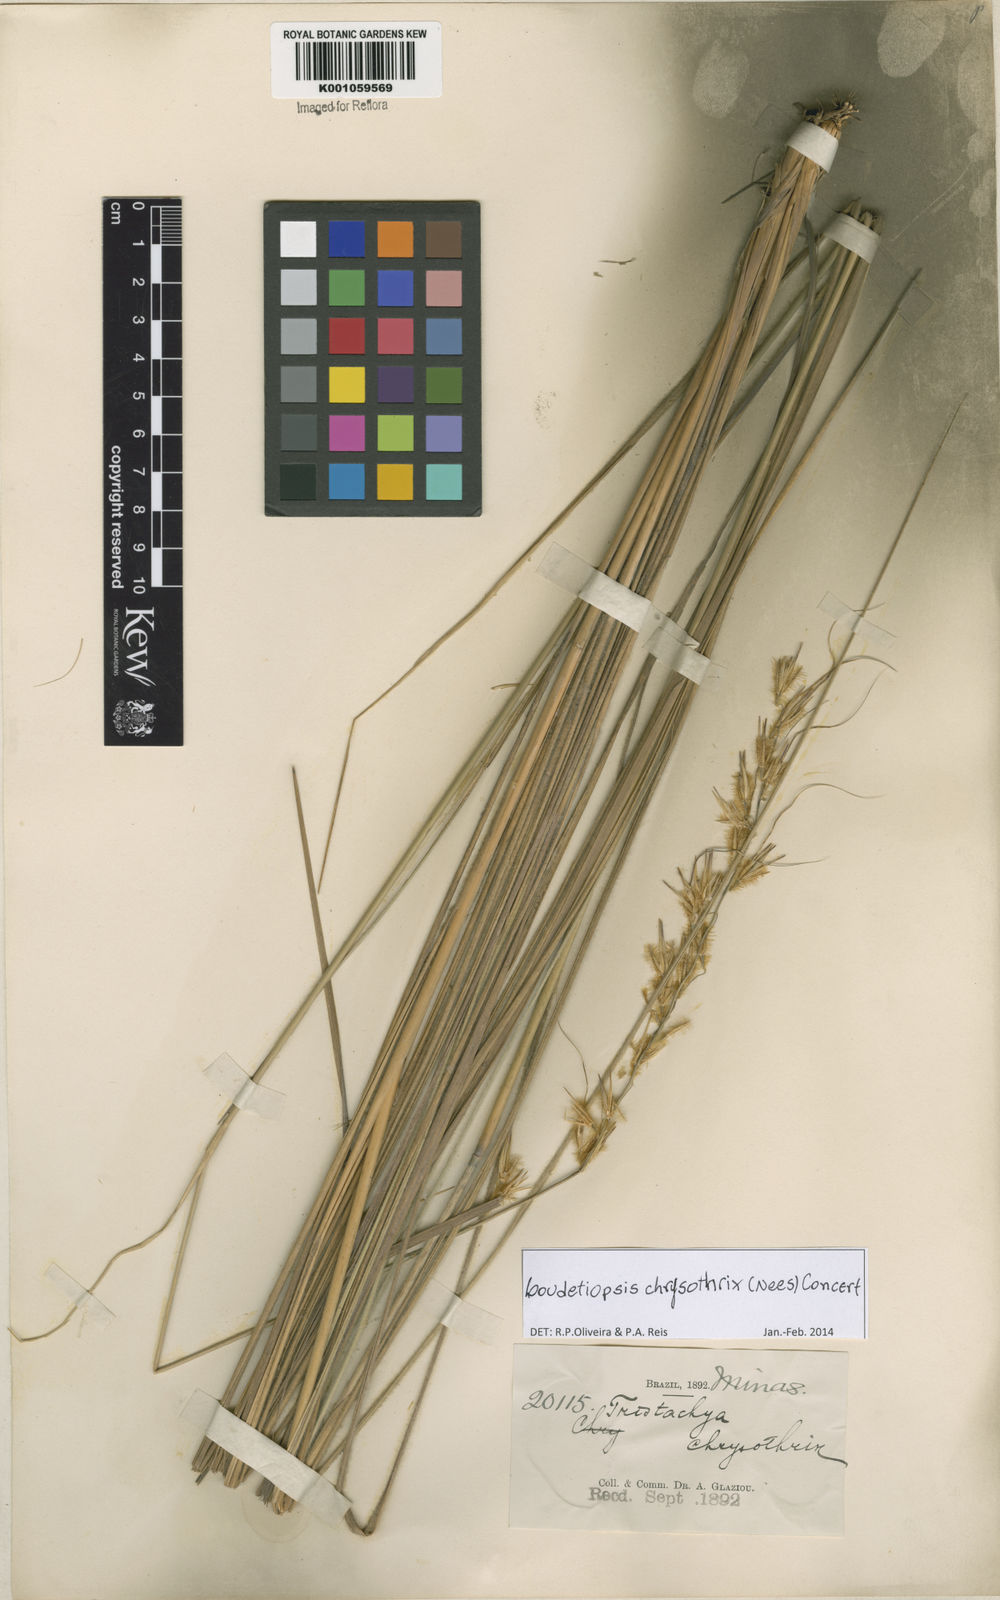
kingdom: Plantae
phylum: Tracheophyta
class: Liliopsida
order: Poales
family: Poaceae
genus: Loudetiopsis
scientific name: Loudetiopsis chrysothrix
